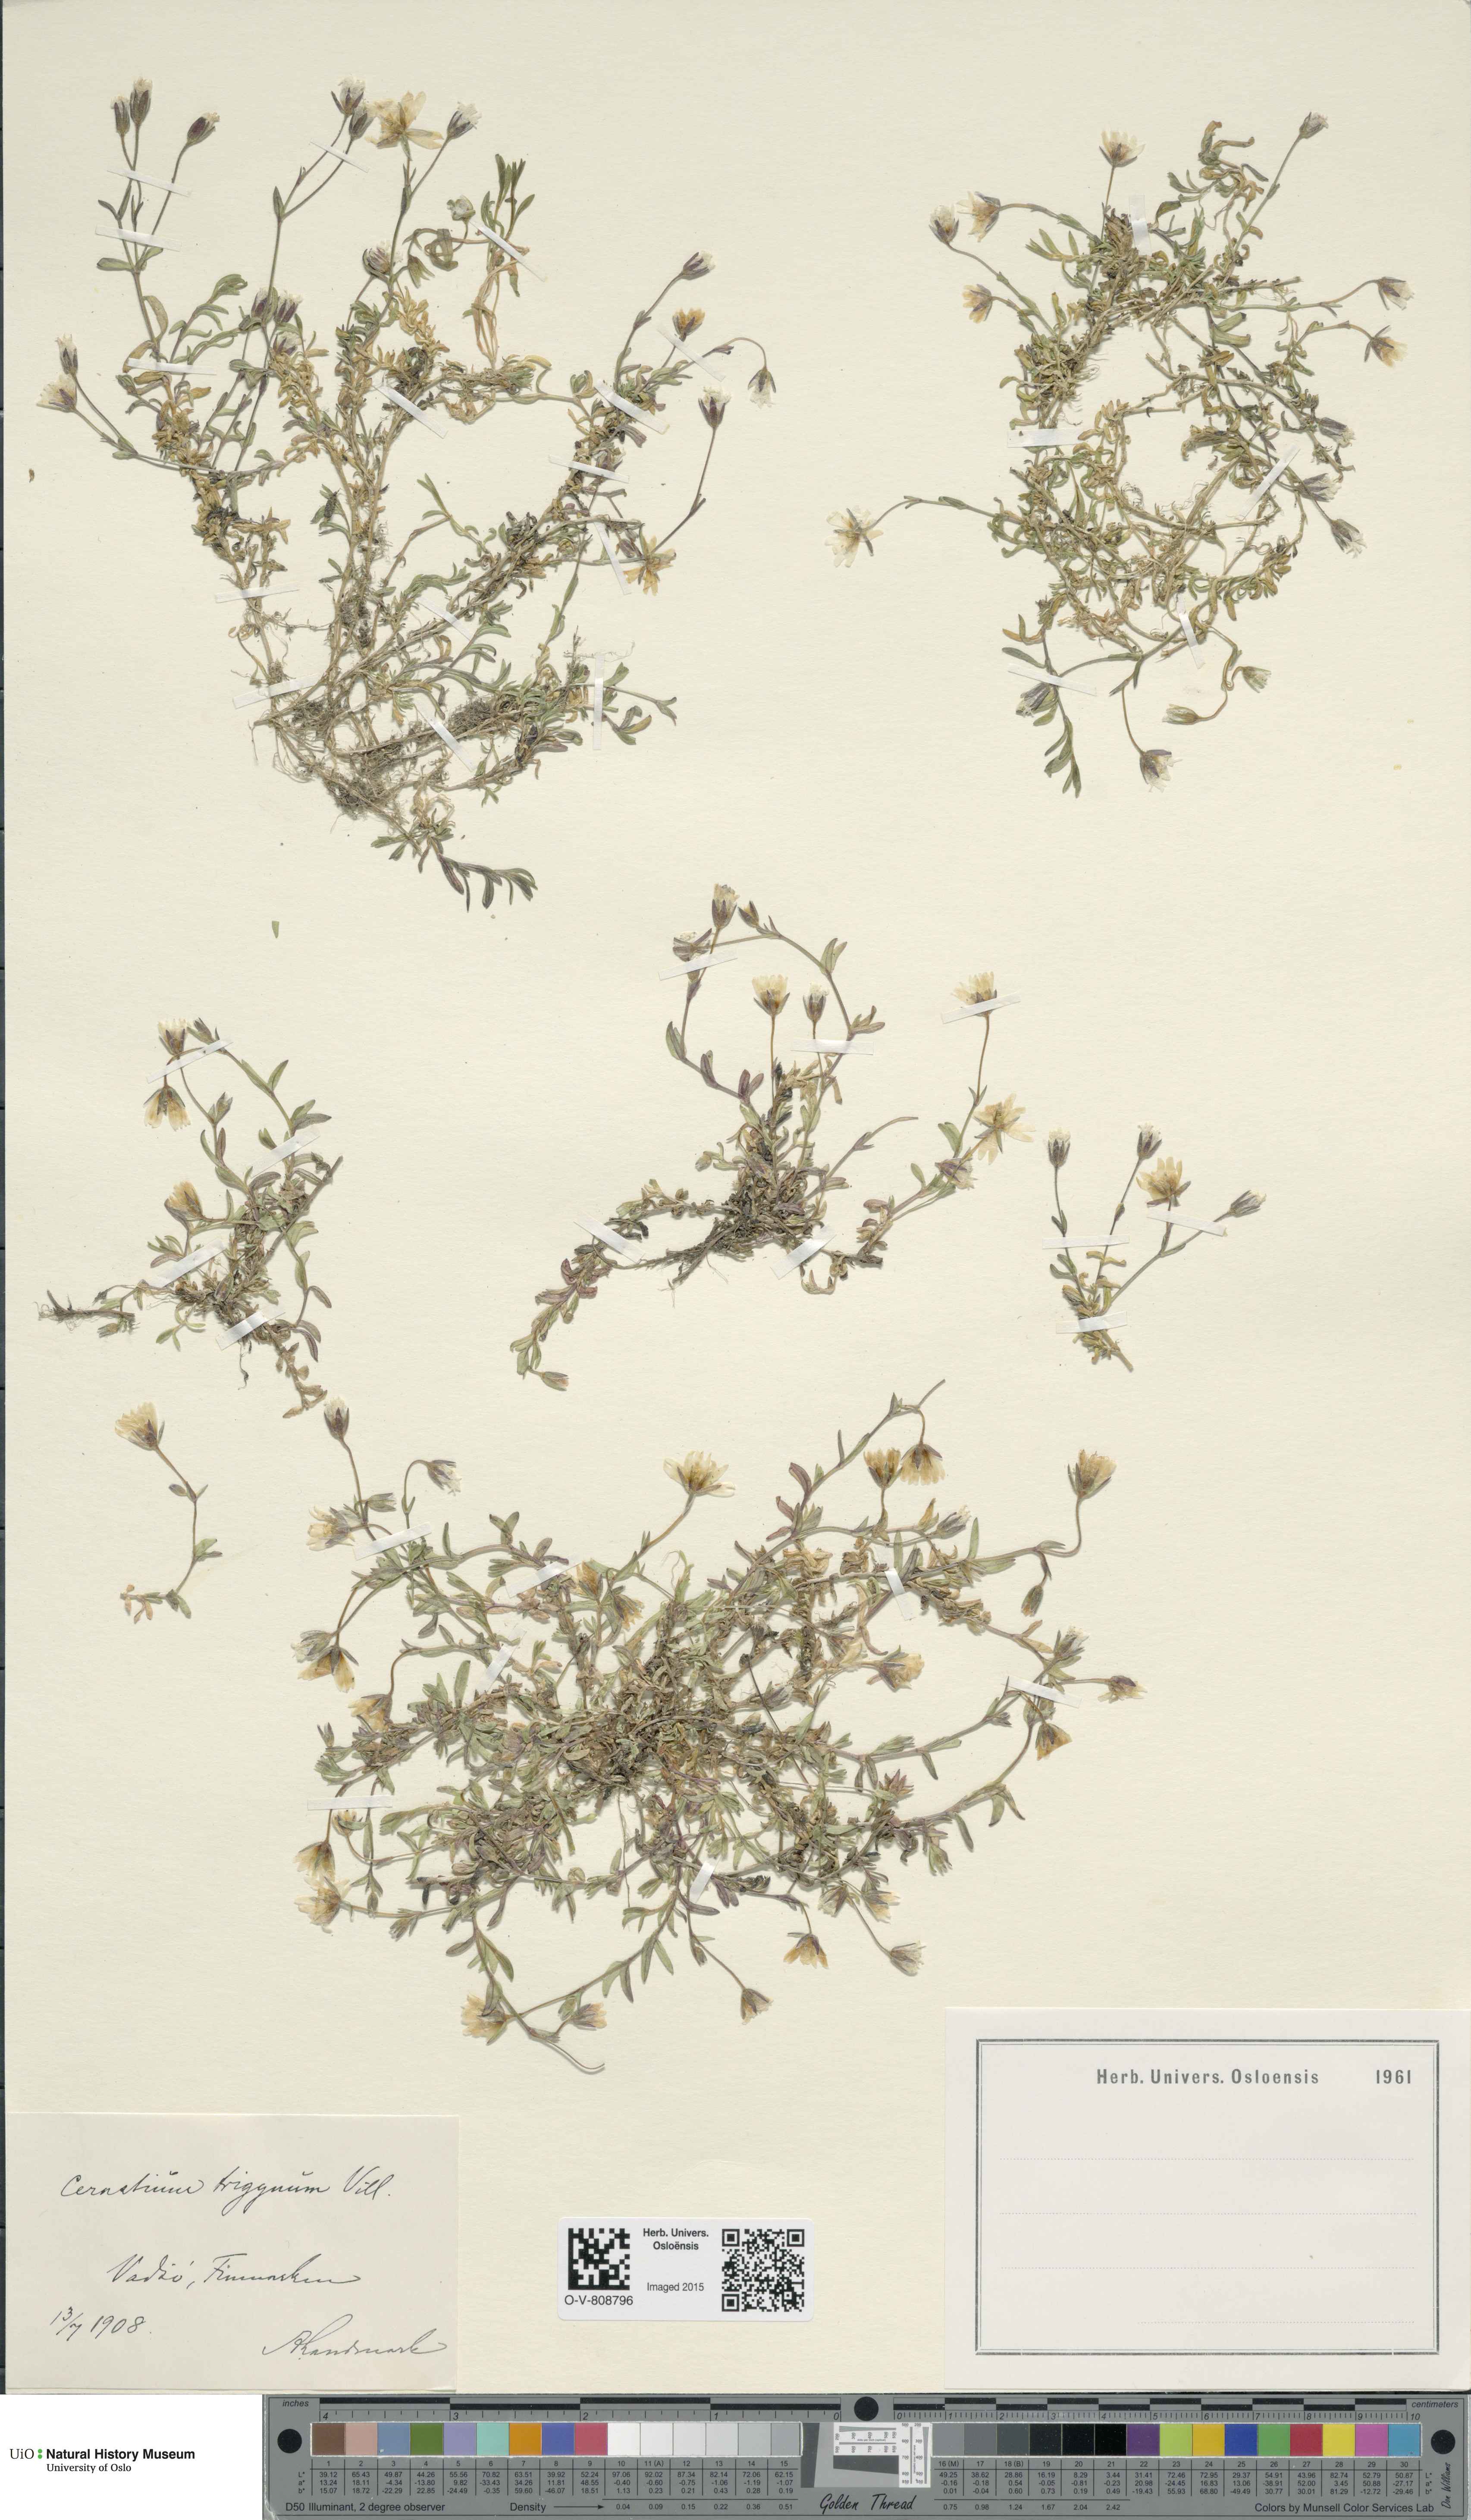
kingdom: Plantae
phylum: Tracheophyta
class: Magnoliopsida
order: Caryophyllales
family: Caryophyllaceae
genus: Dichodon
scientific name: Dichodon cerastoides
